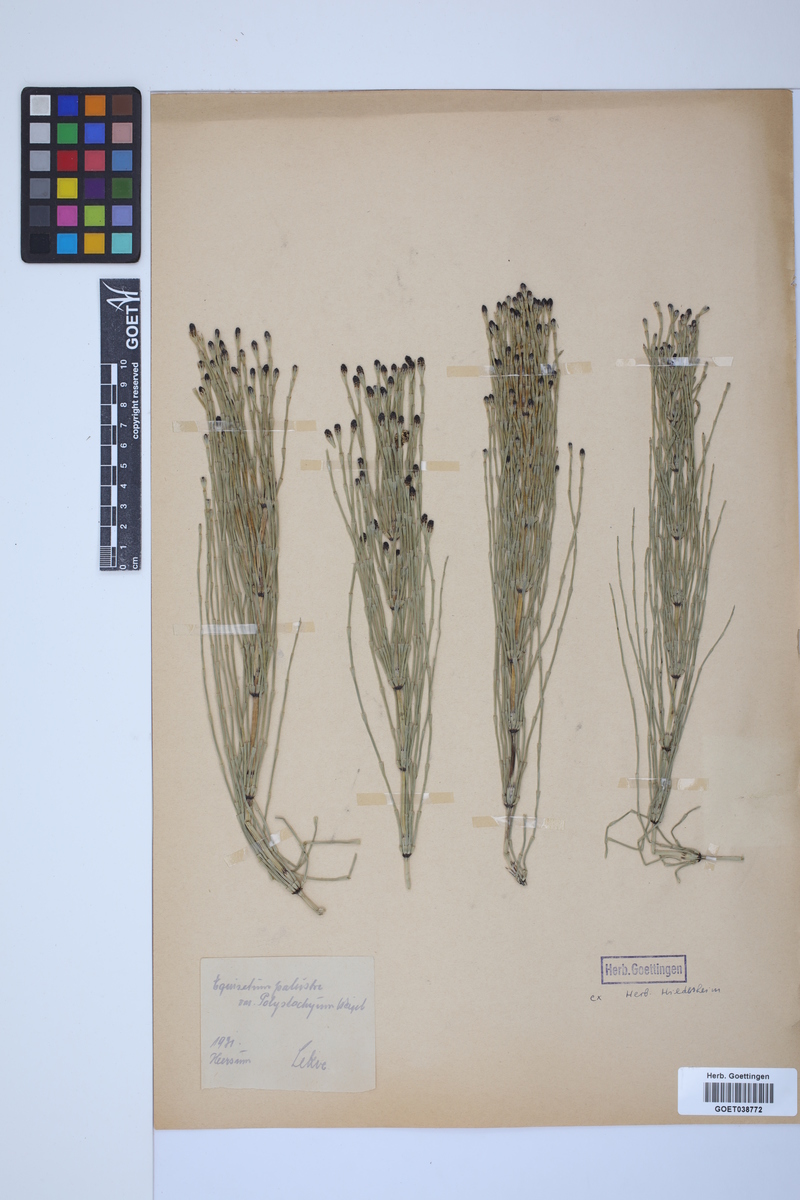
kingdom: Plantae
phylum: Tracheophyta
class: Polypodiopsida
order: Equisetales
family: Equisetaceae
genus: Equisetum
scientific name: Equisetum palustre
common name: Marsh horsetail
